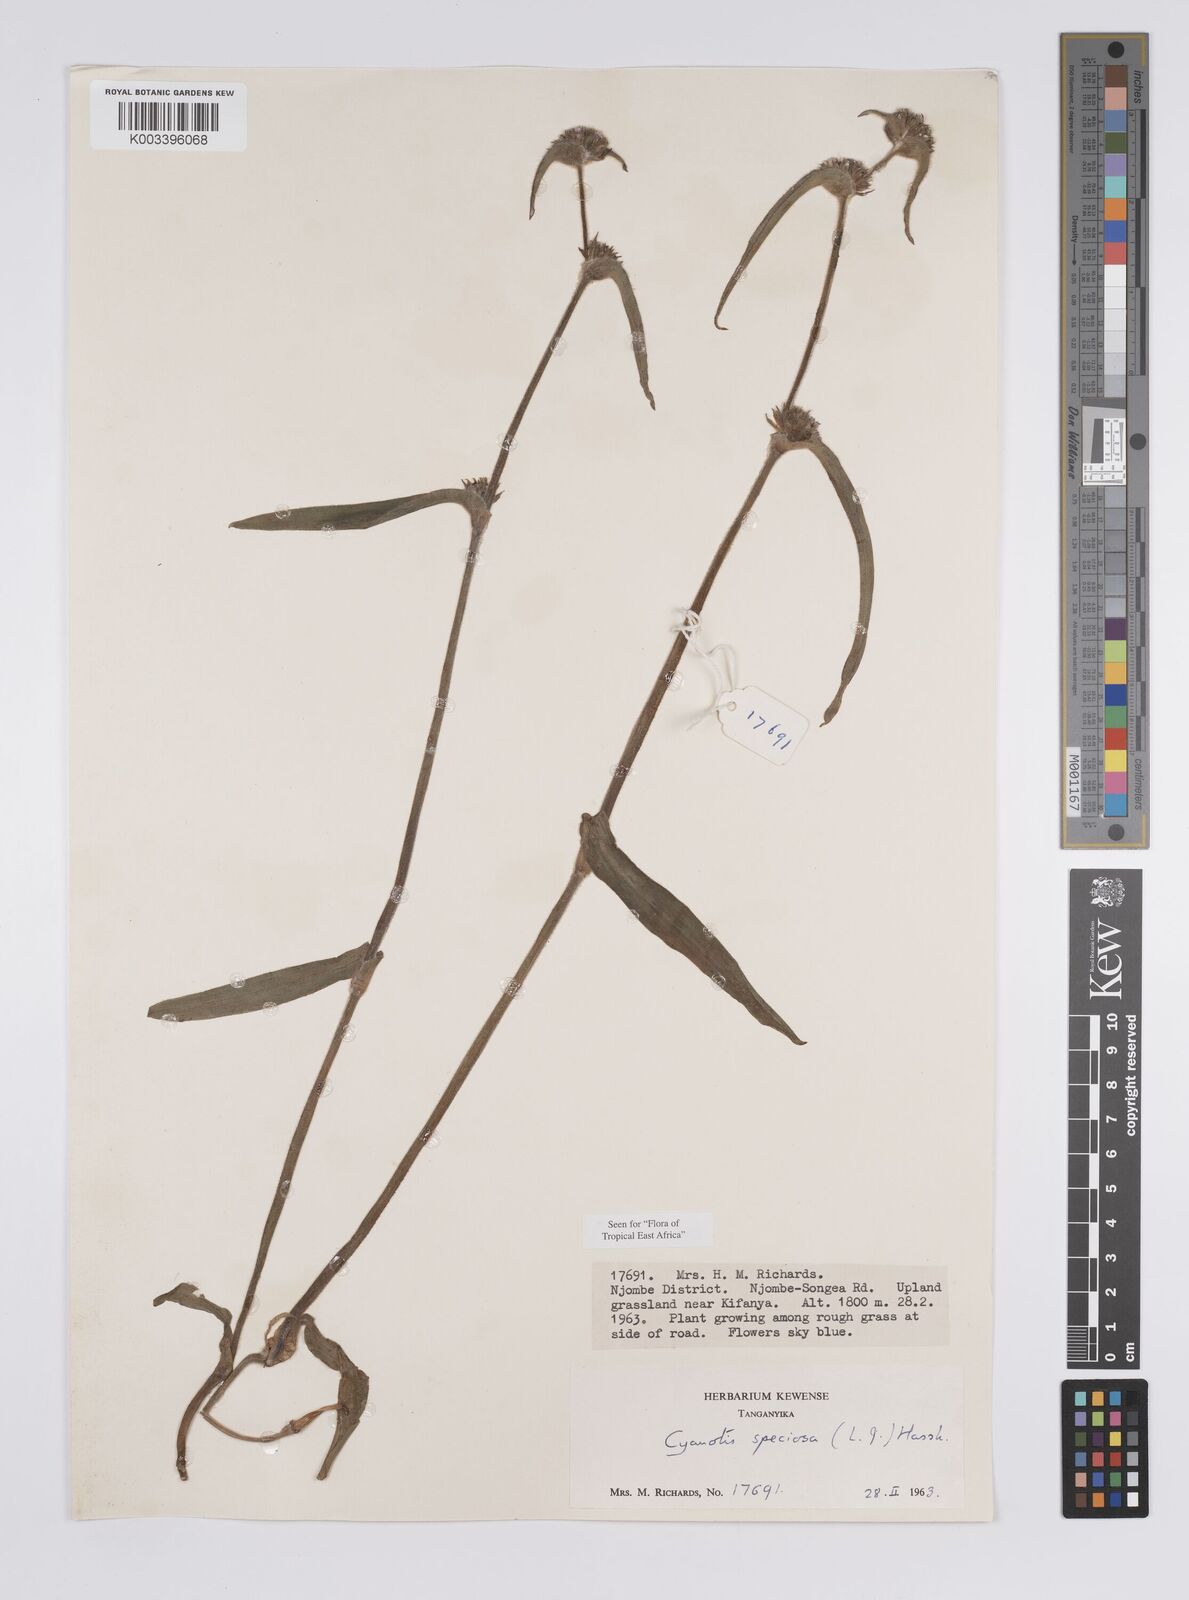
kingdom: Plantae
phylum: Tracheophyta
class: Liliopsida
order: Commelinales
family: Commelinaceae
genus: Cyanotis
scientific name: Cyanotis speciosa
